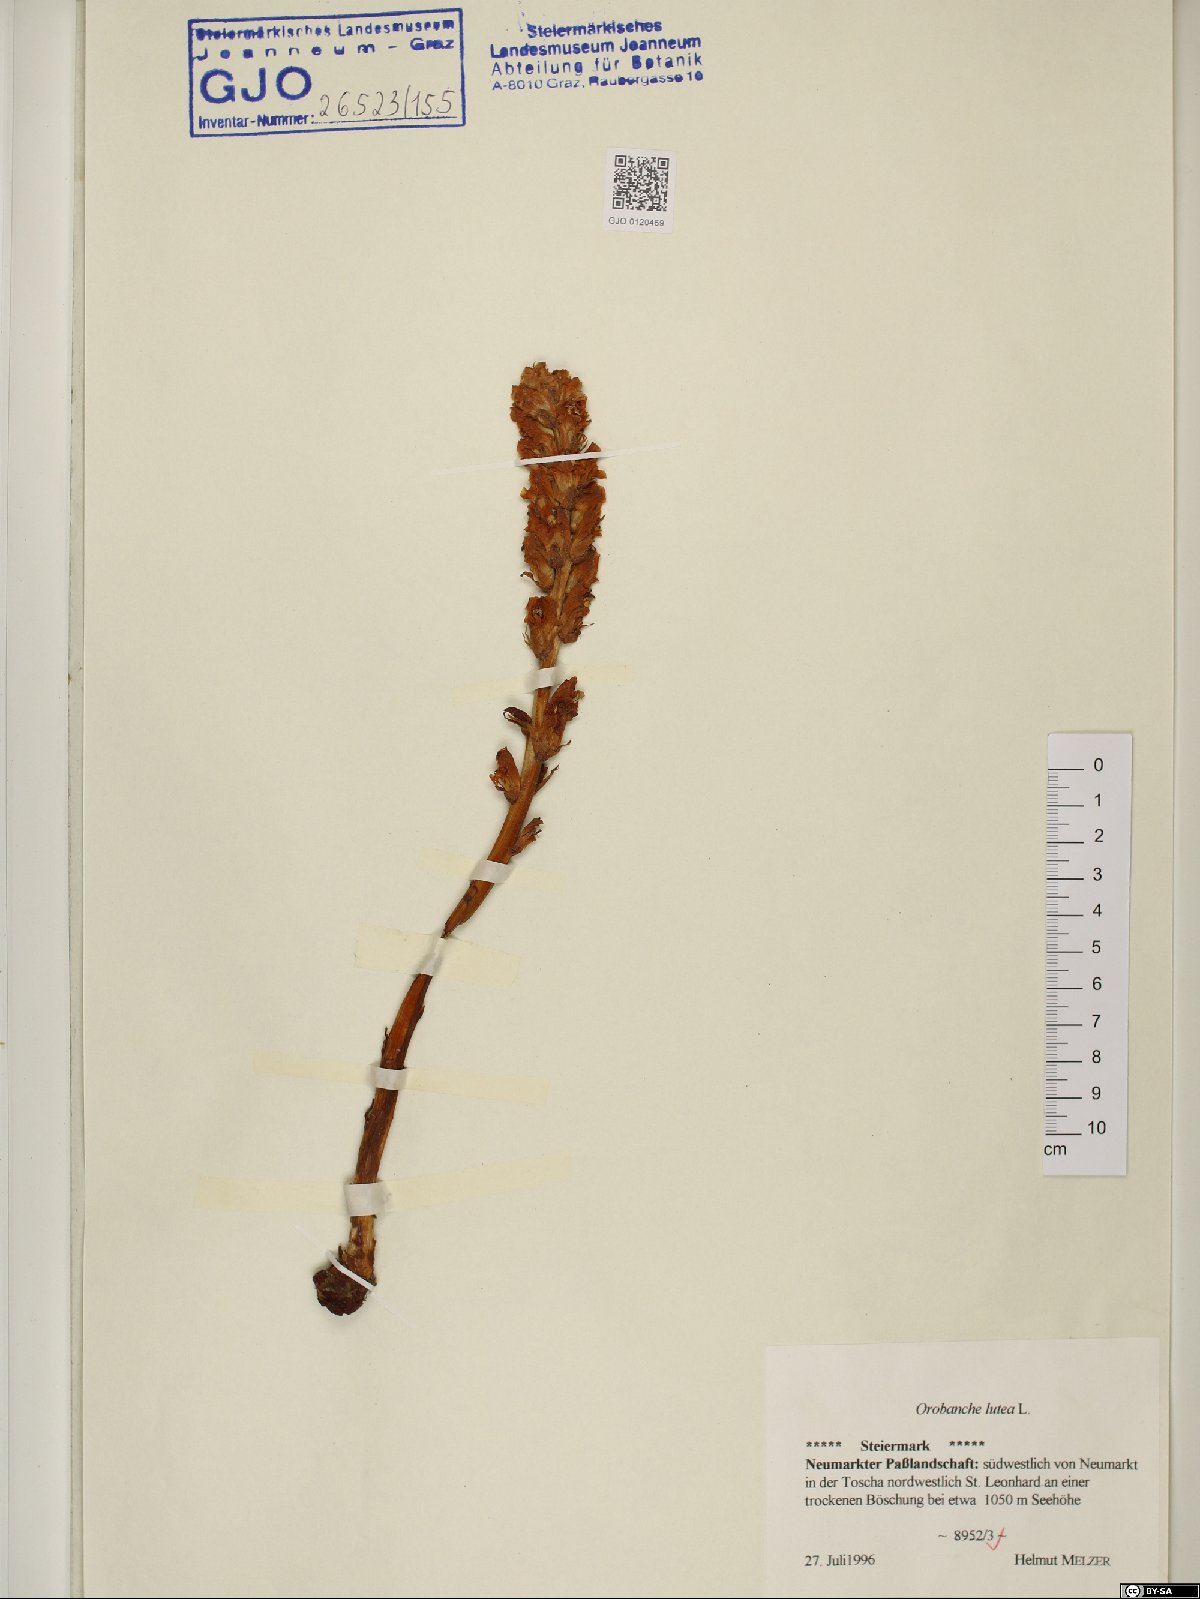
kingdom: Plantae
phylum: Tracheophyta
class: Magnoliopsida
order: Lamiales
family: Orobanchaceae
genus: Orobanche
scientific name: Orobanche lutea
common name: Yellow broomrape
